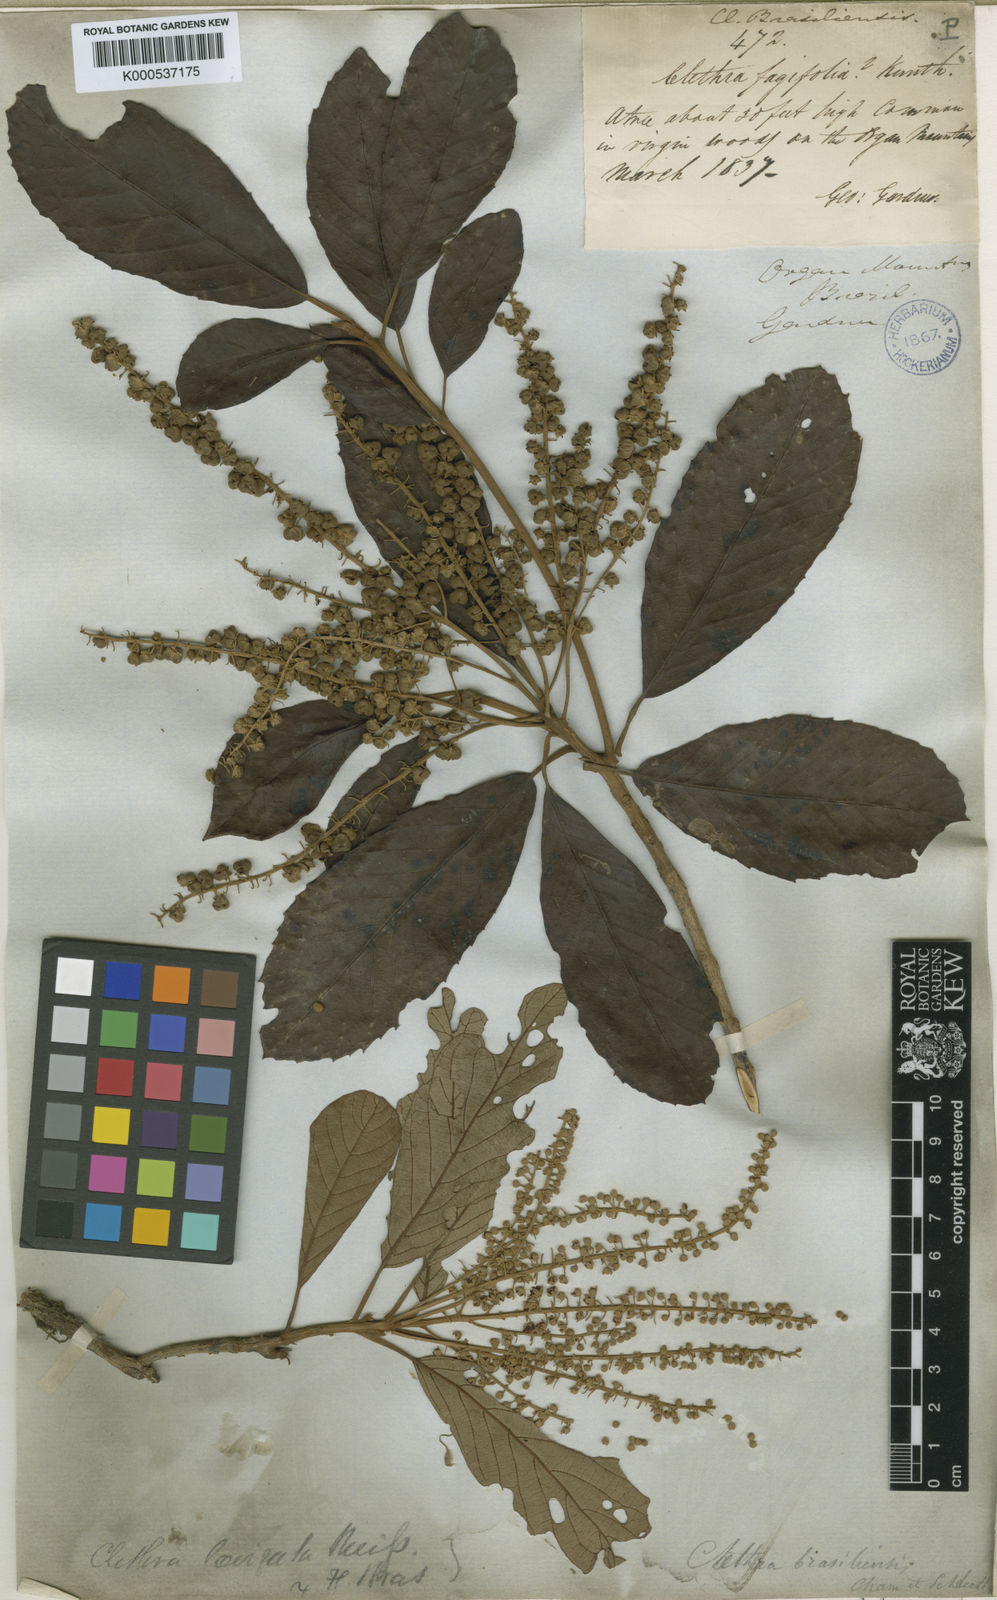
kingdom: Plantae
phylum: Tracheophyta
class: Magnoliopsida
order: Ericales
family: Clethraceae
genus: Clethra
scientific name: Clethra scabra
